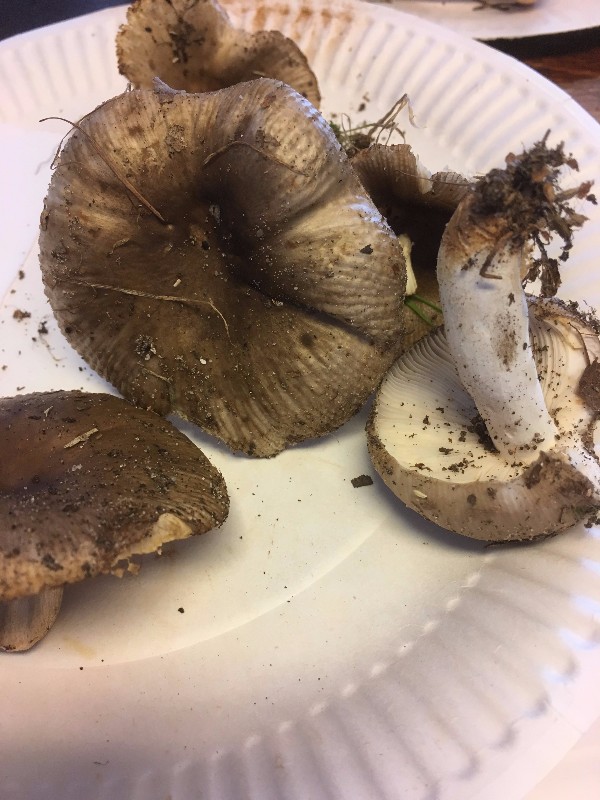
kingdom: Fungi
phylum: Basidiomycota
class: Agaricomycetes
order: Russulales
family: Russulaceae
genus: Russula
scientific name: Russula amoenolens
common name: skarp kam-skørhat
